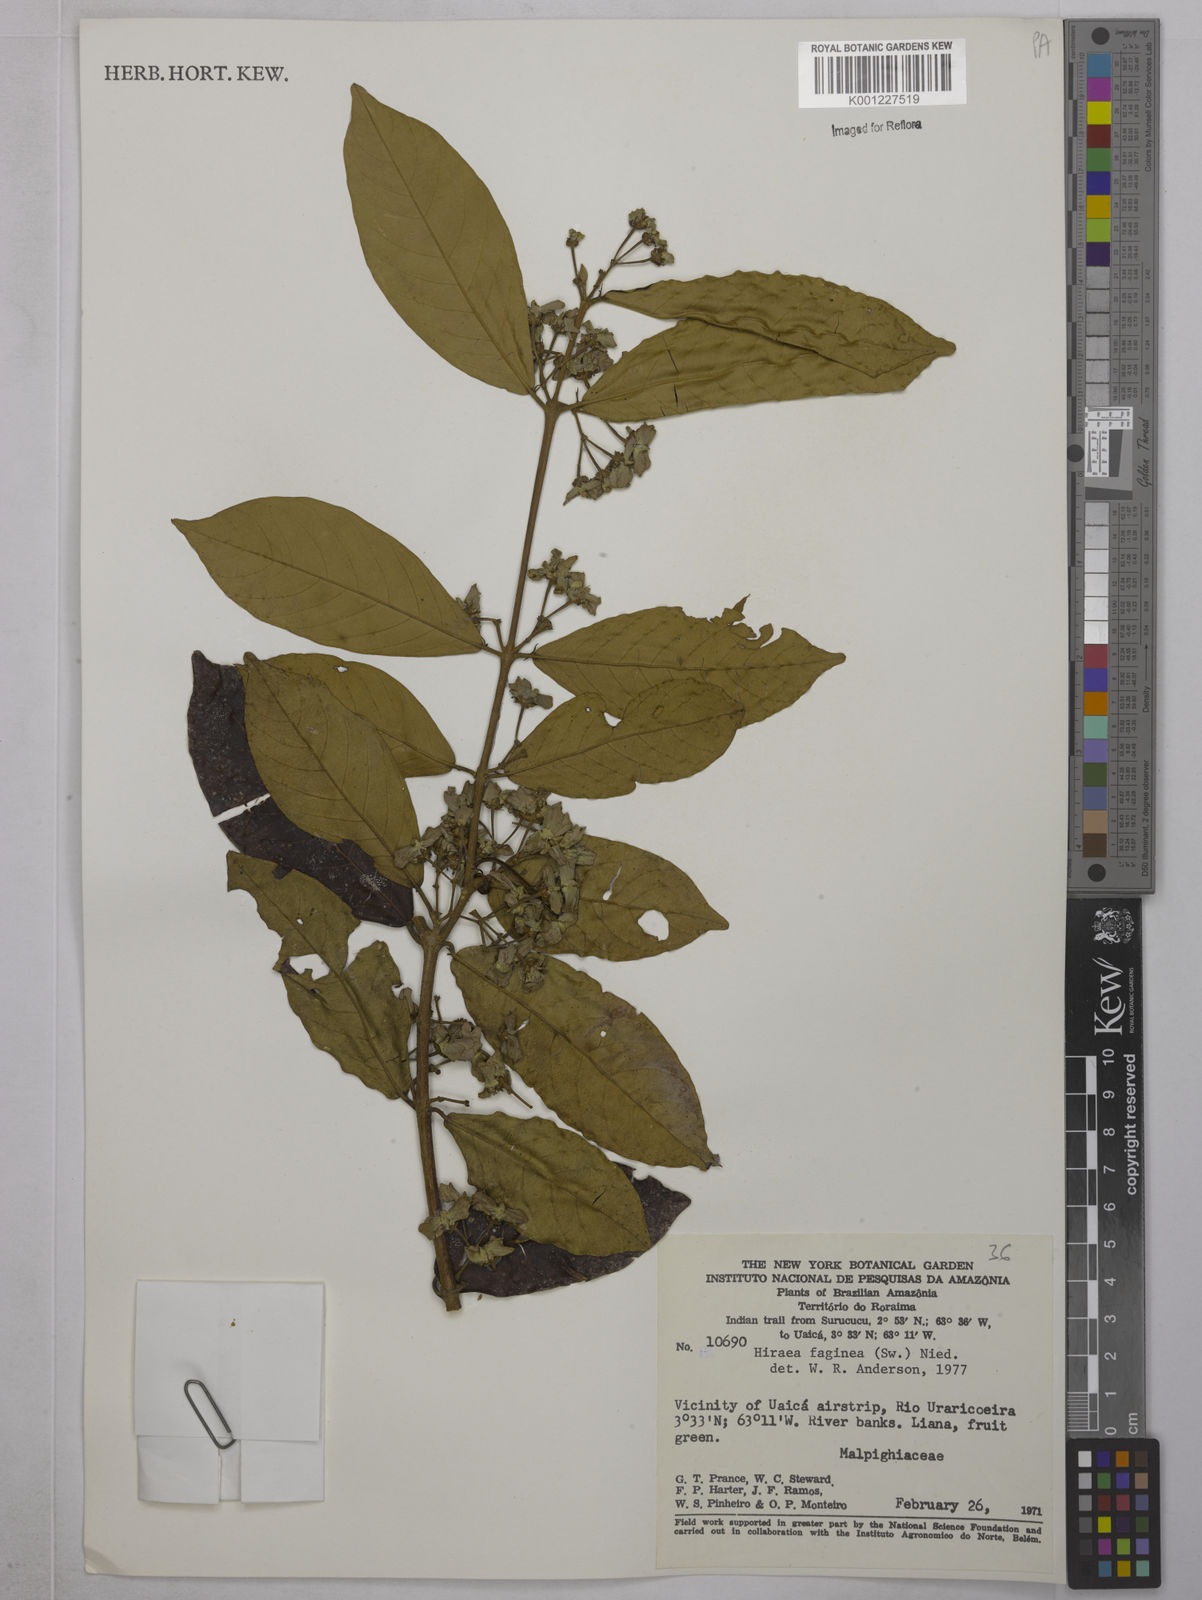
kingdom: Plantae
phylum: Tracheophyta
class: Magnoliopsida
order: Malpighiales
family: Malpighiaceae
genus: Hiraea
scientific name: Hiraea faginea
